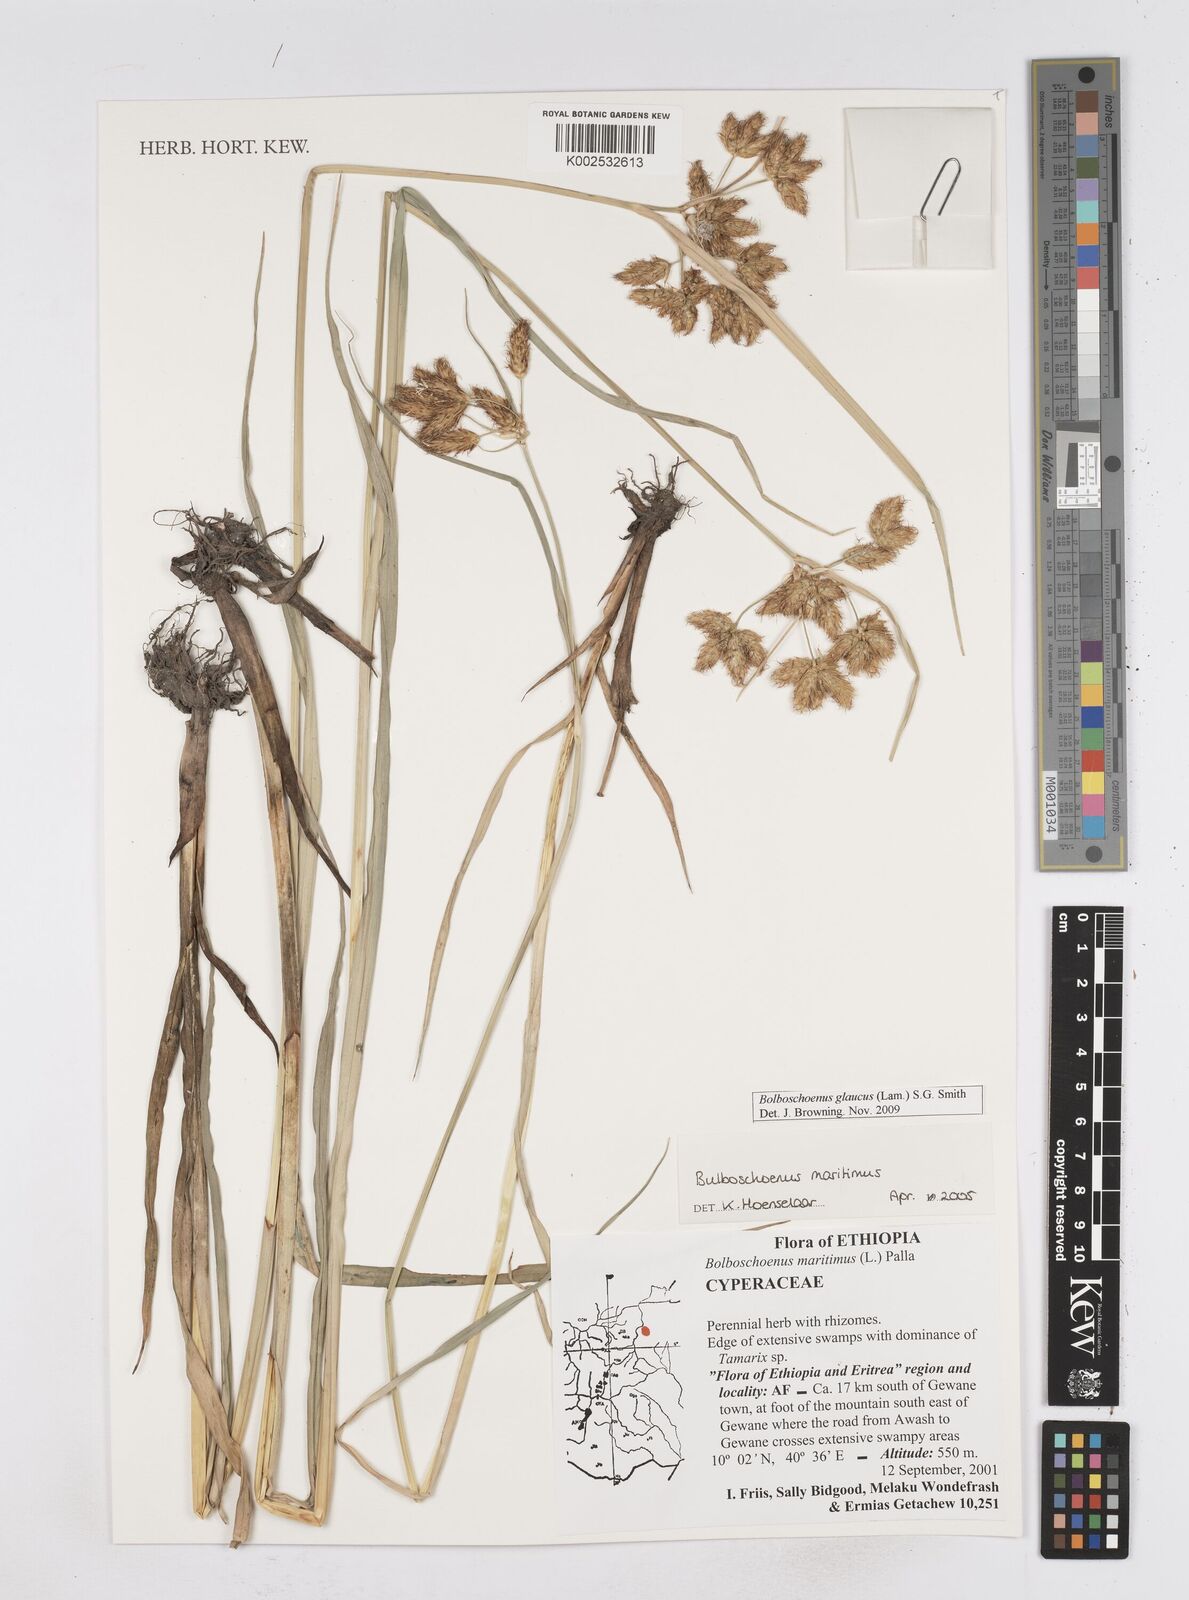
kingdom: Plantae
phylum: Tracheophyta
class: Liliopsida
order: Poales
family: Cyperaceae
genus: Bolboschoenus
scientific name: Bolboschoenus glaucus
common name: Tuberous bulrush
